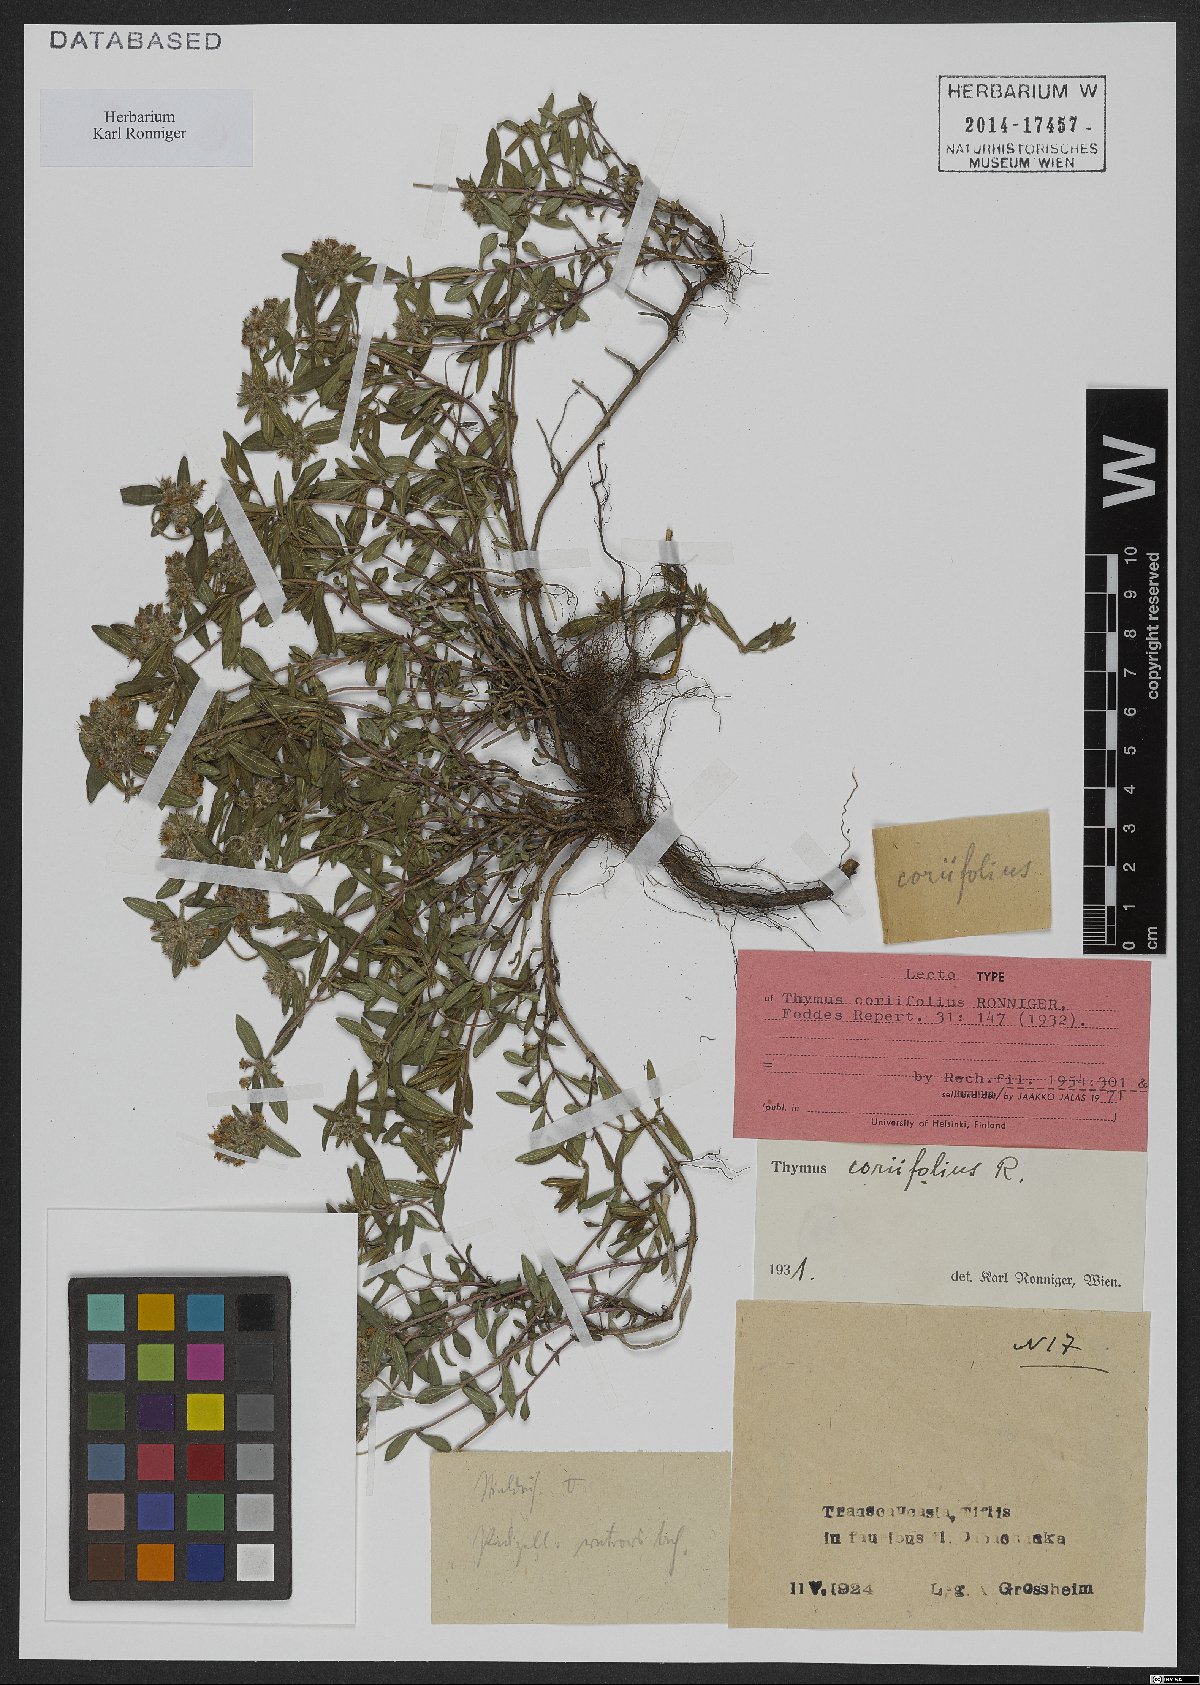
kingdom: Plantae
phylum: Tracheophyta
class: Magnoliopsida
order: Lamiales
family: Lamiaceae
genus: Thymus
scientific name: Thymus coriifolius
